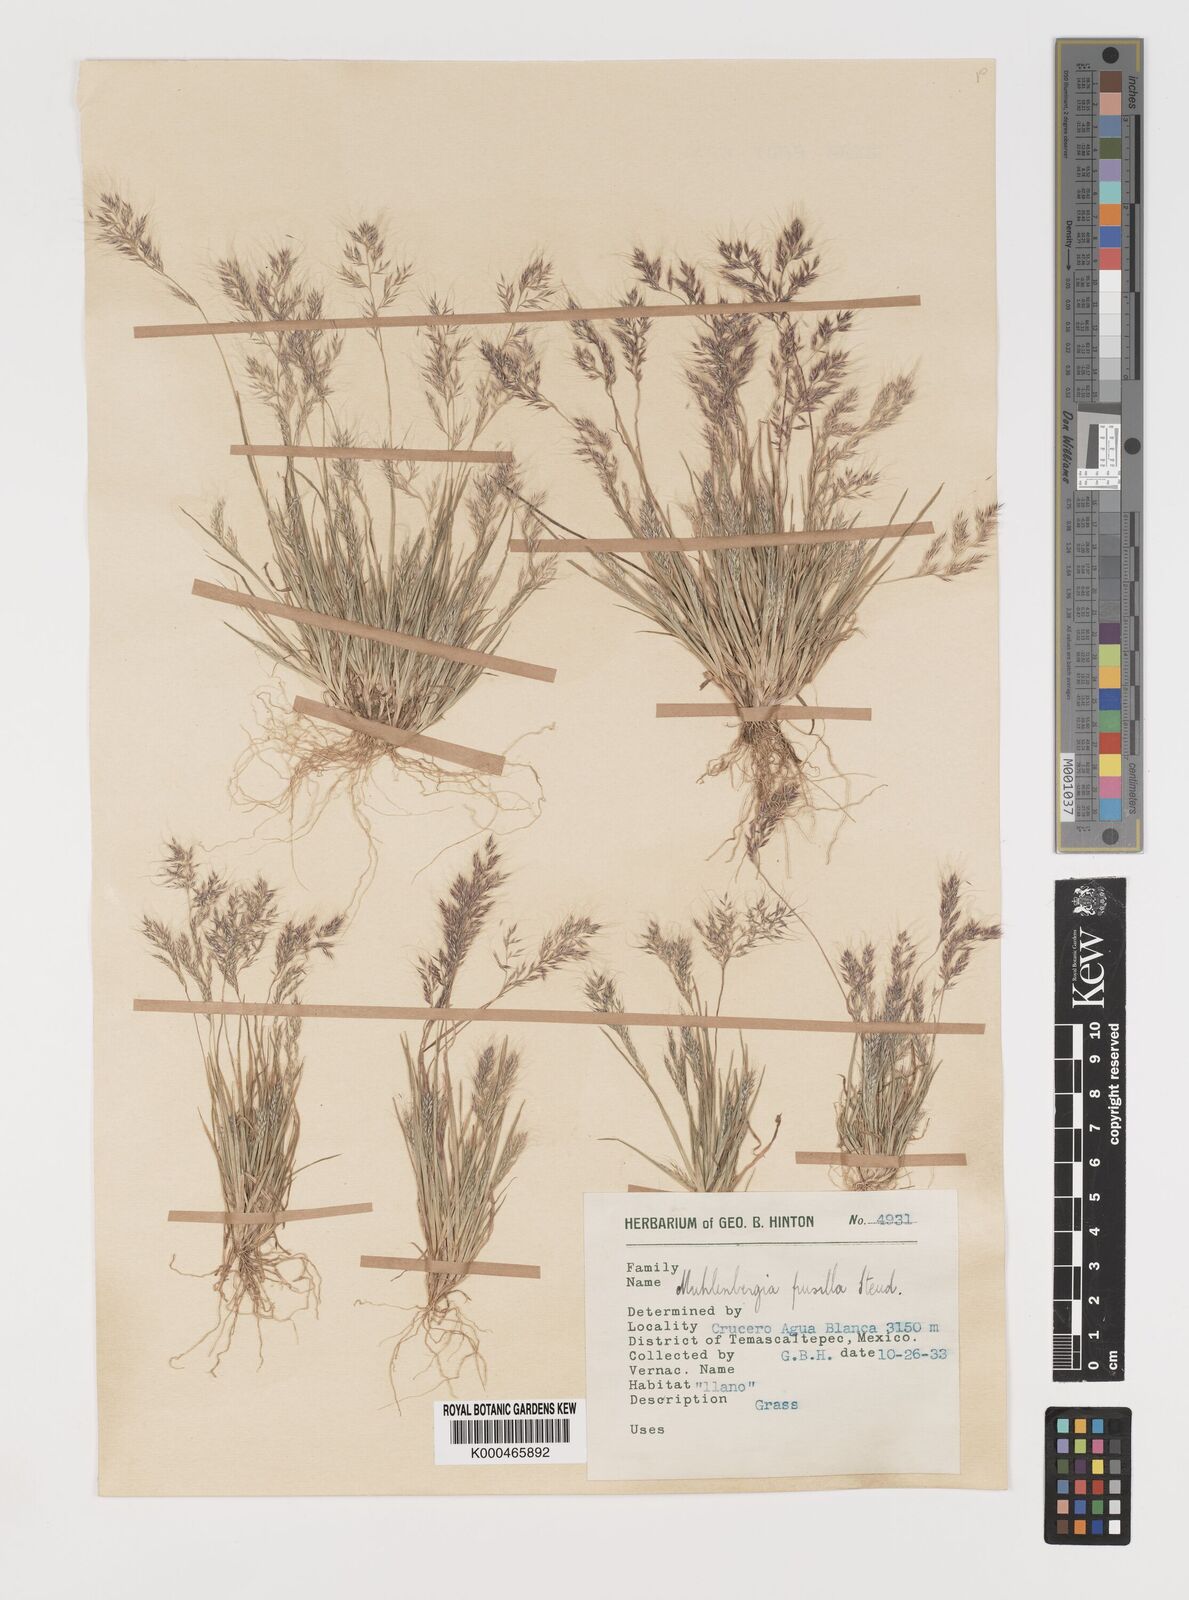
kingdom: Plantae
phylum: Tracheophyta
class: Liliopsida
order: Poales
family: Poaceae
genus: Muhlenbergia
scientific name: Muhlenbergia peruviana
